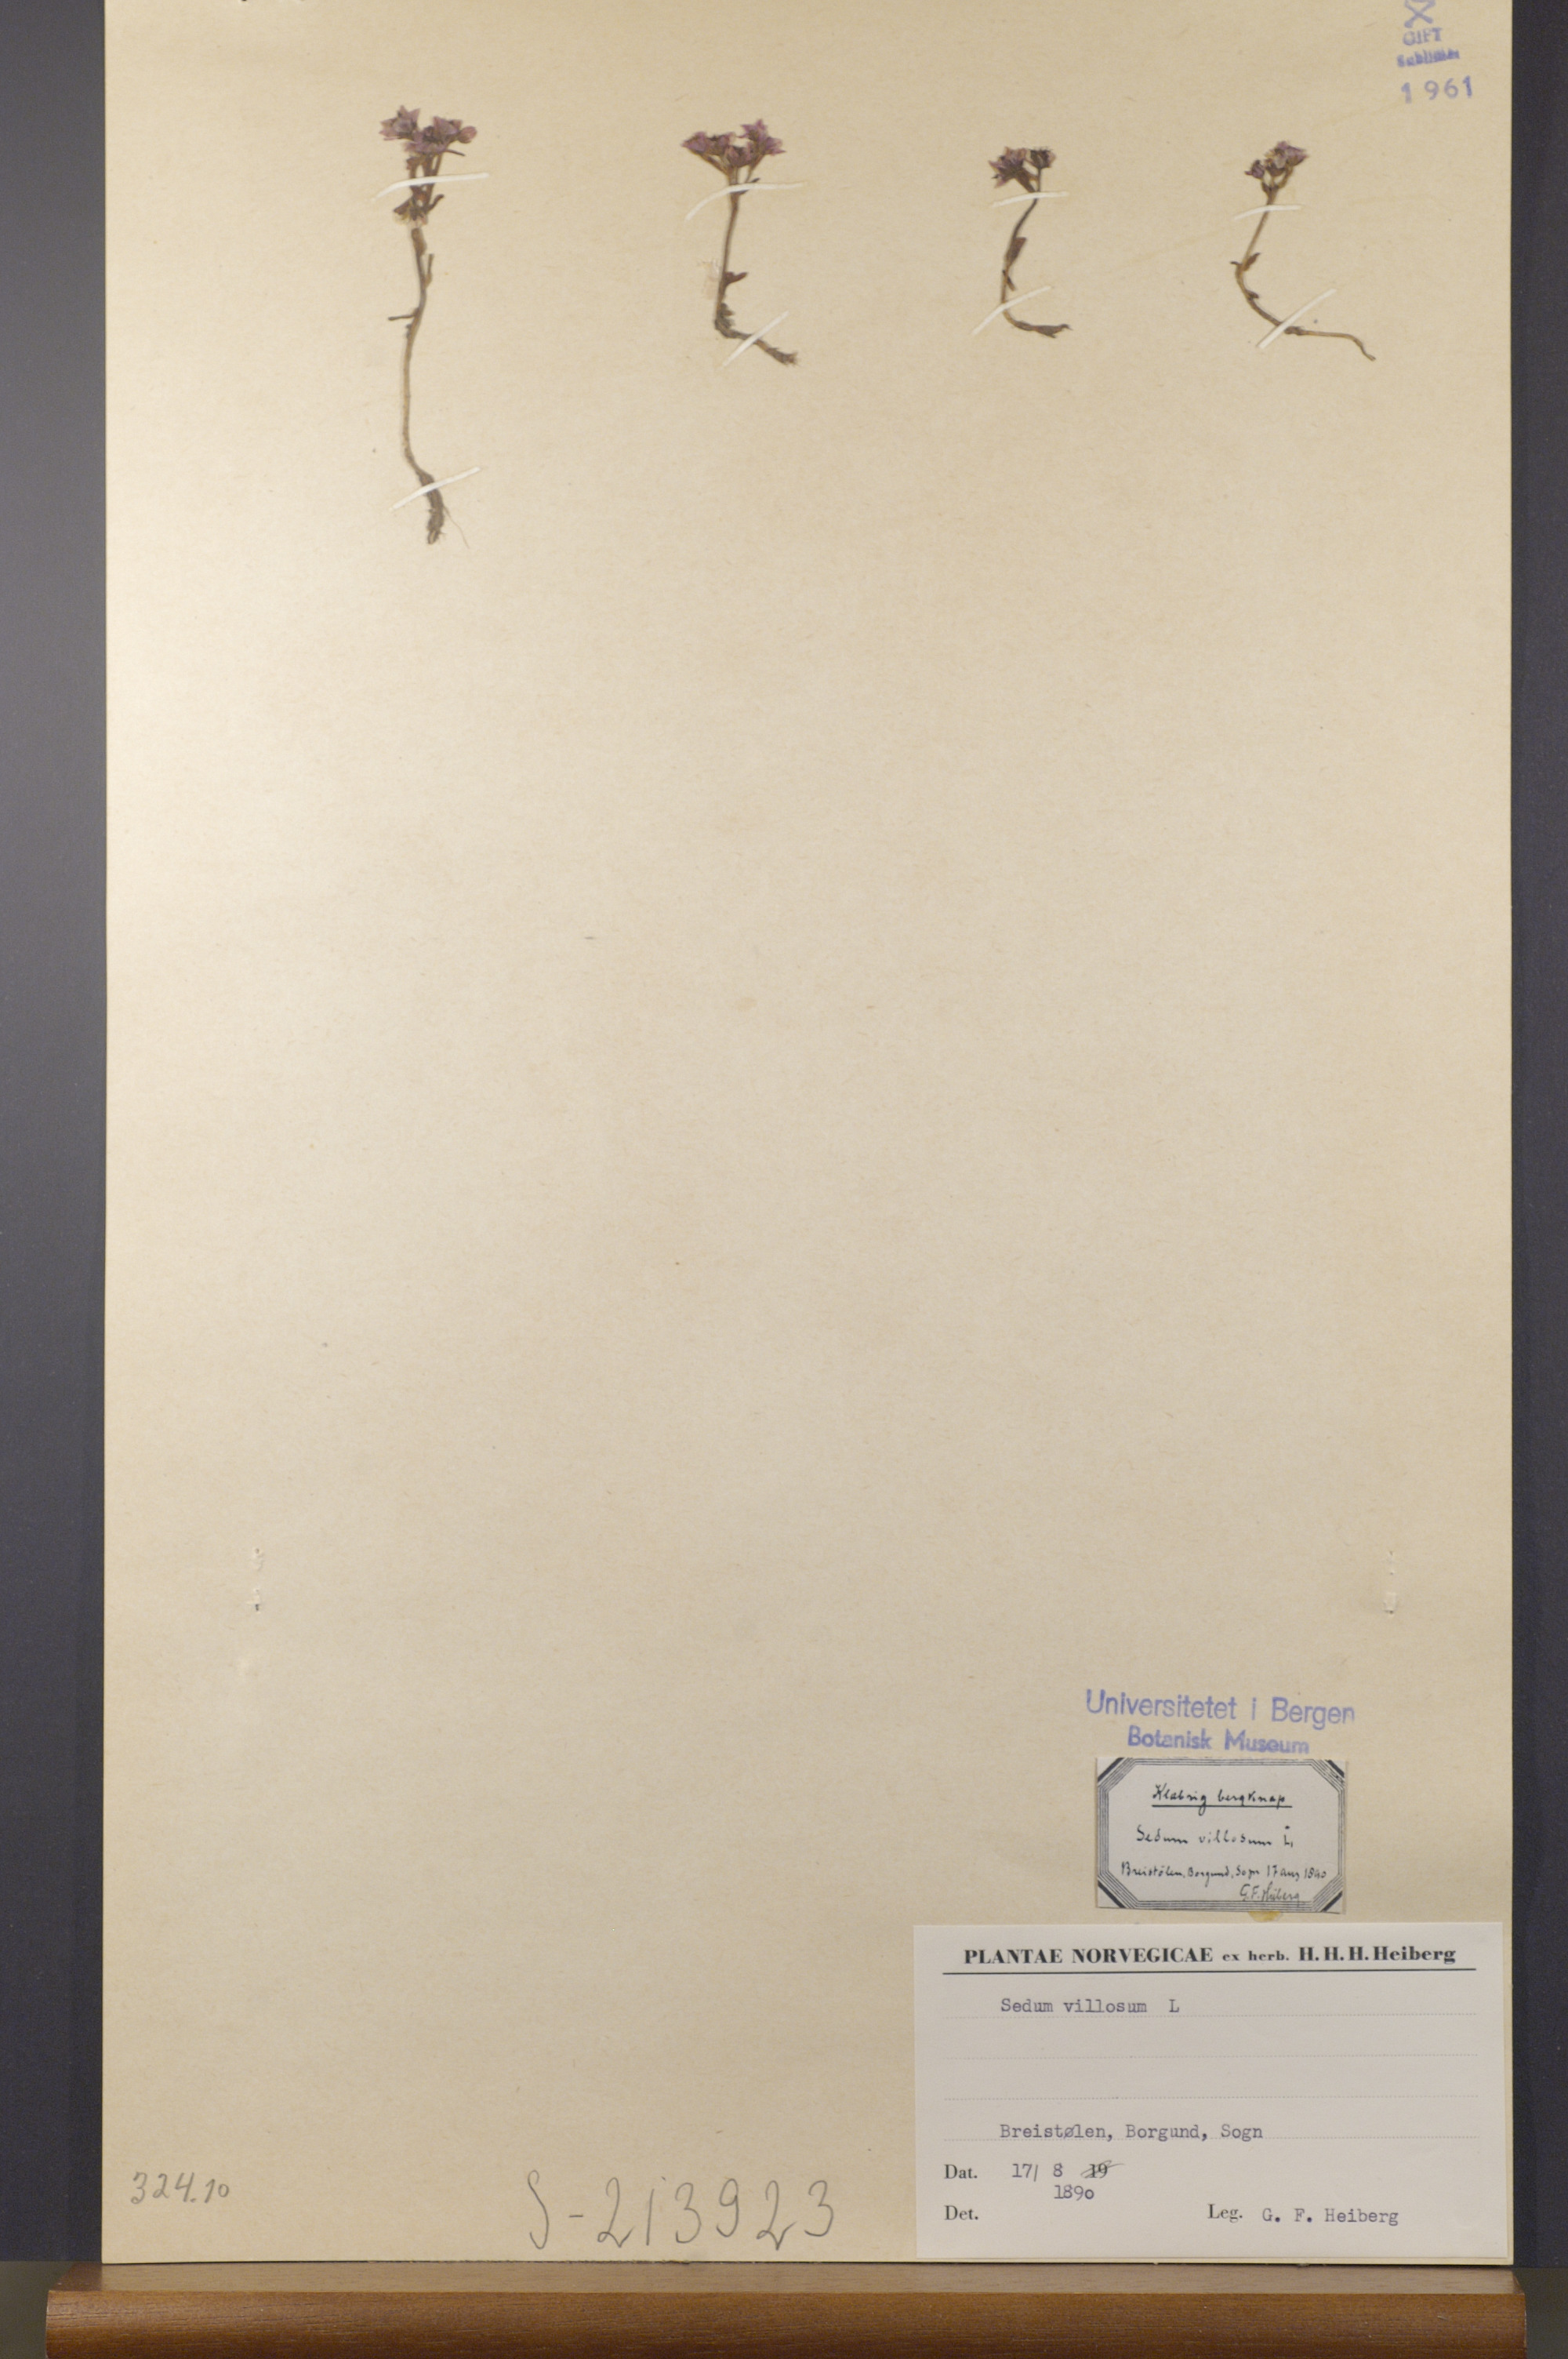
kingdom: Plantae
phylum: Tracheophyta
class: Magnoliopsida
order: Saxifragales
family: Crassulaceae
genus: Sedum
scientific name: Sedum villosum
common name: Hairy stonecrop
